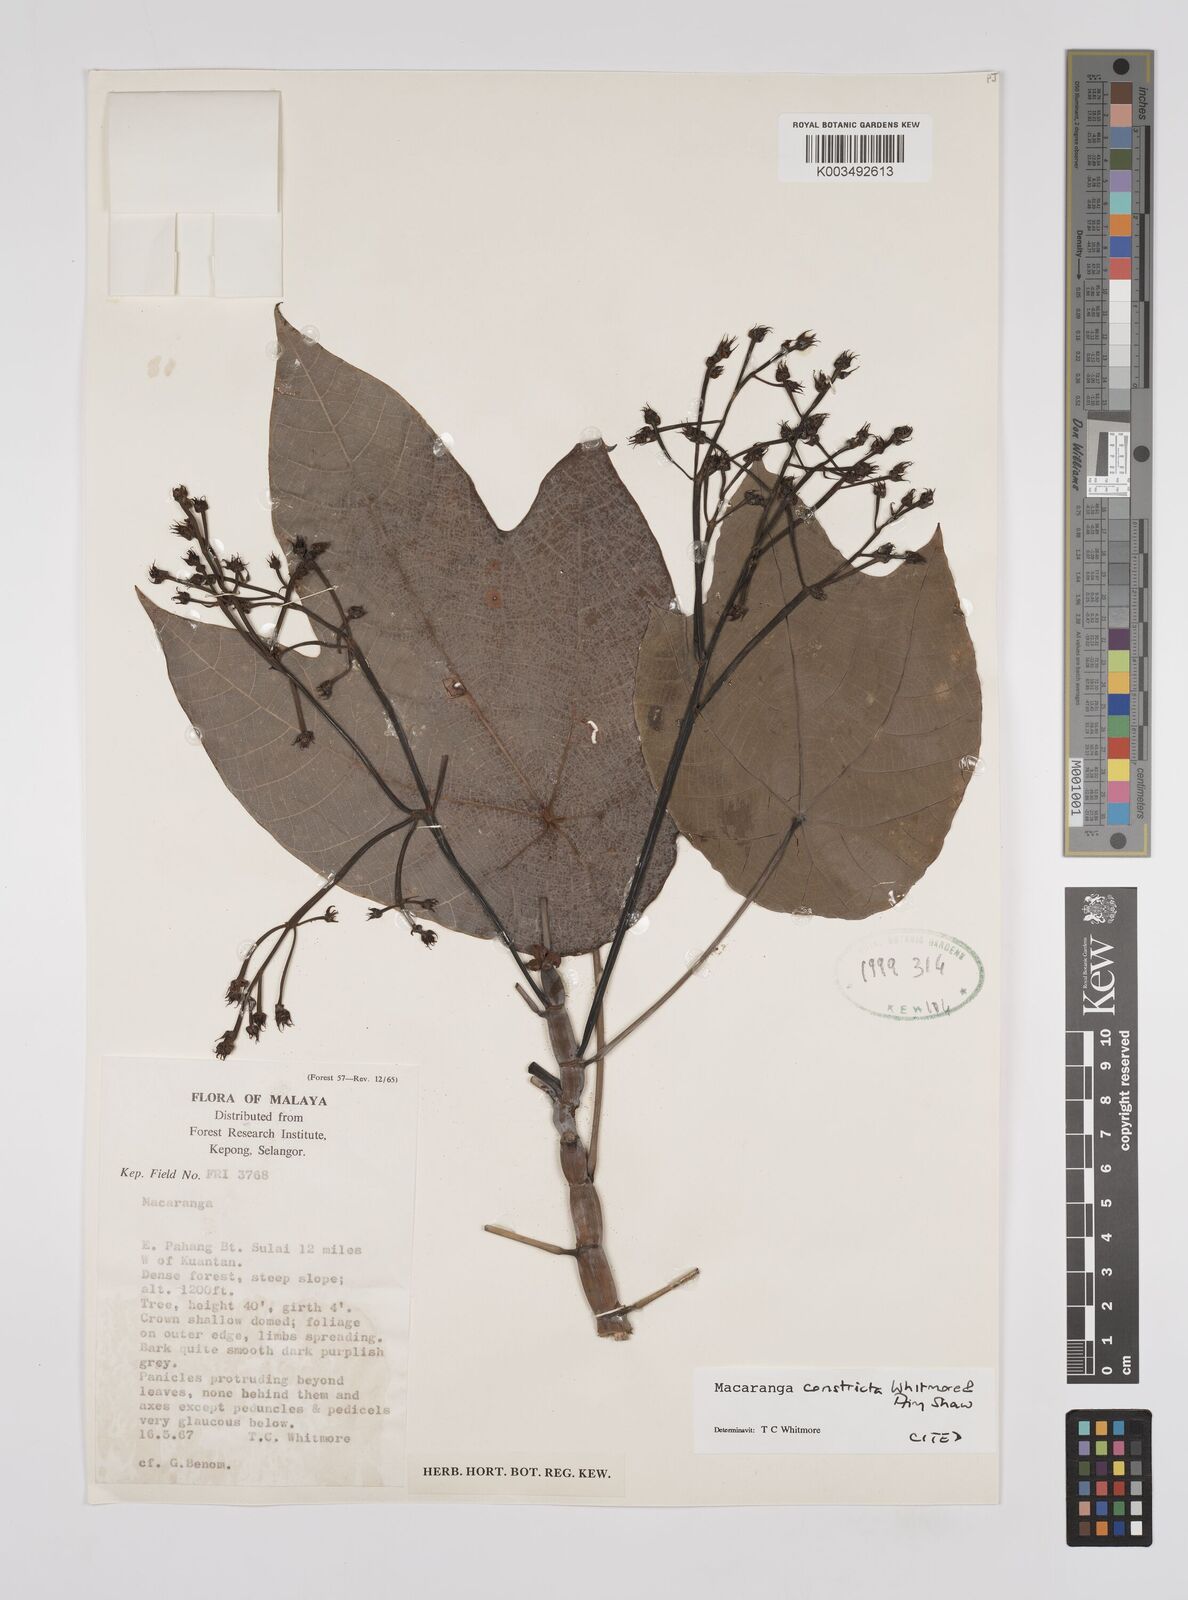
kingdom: Plantae
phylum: Tracheophyta
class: Magnoliopsida
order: Malpighiales
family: Euphorbiaceae
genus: Macaranga
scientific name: Macaranga constricta
